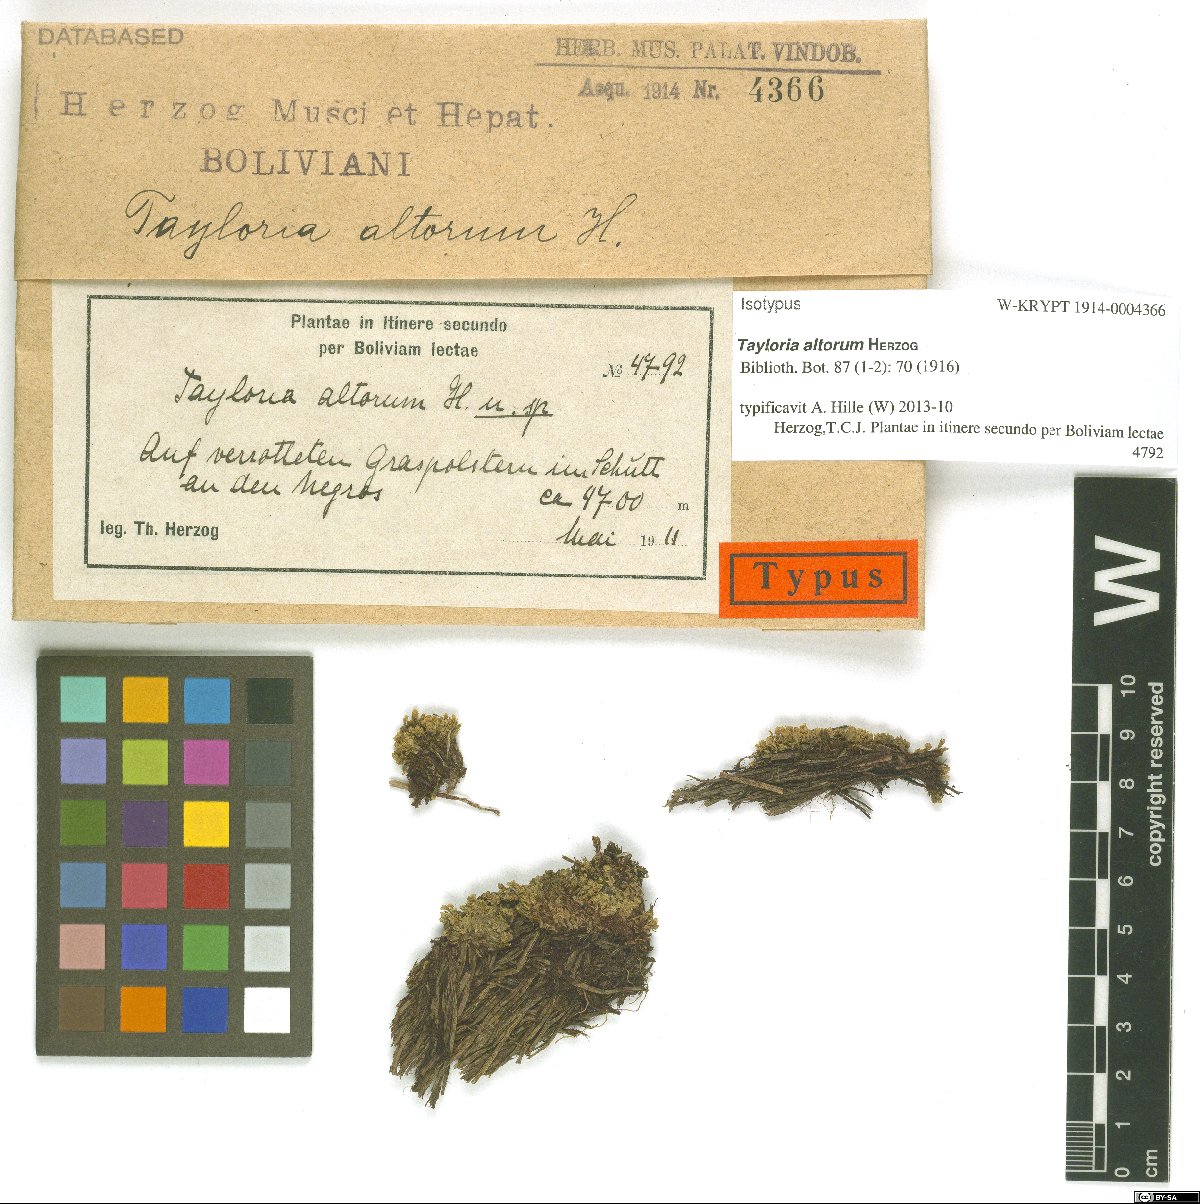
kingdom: Plantae
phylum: Bryophyta
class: Bryopsida
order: Splachnales
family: Splachnaceae
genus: Tayloria
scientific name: Tayloria altorum
